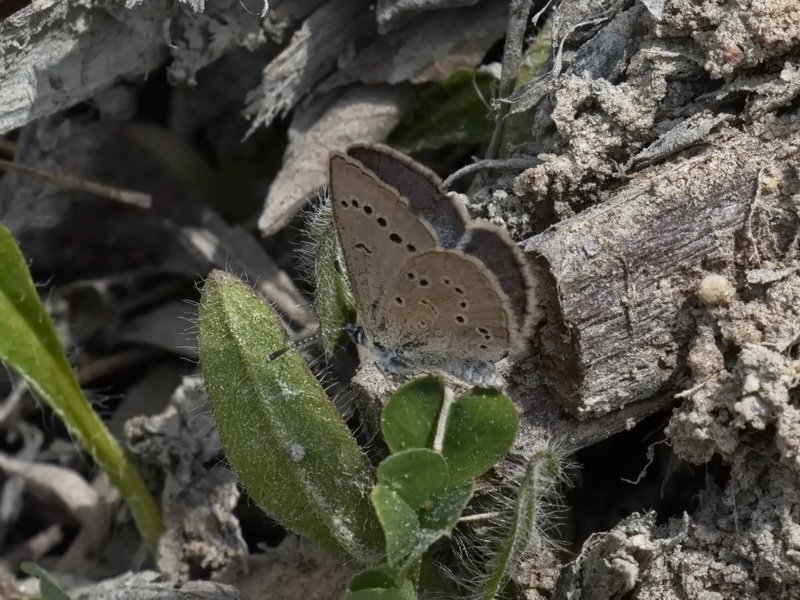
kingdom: Animalia
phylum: Arthropoda
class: Insecta
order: Lepidoptera
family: Lycaenidae
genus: Glaucopsyche
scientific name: Glaucopsyche lygdamus
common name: Silvery Blue
